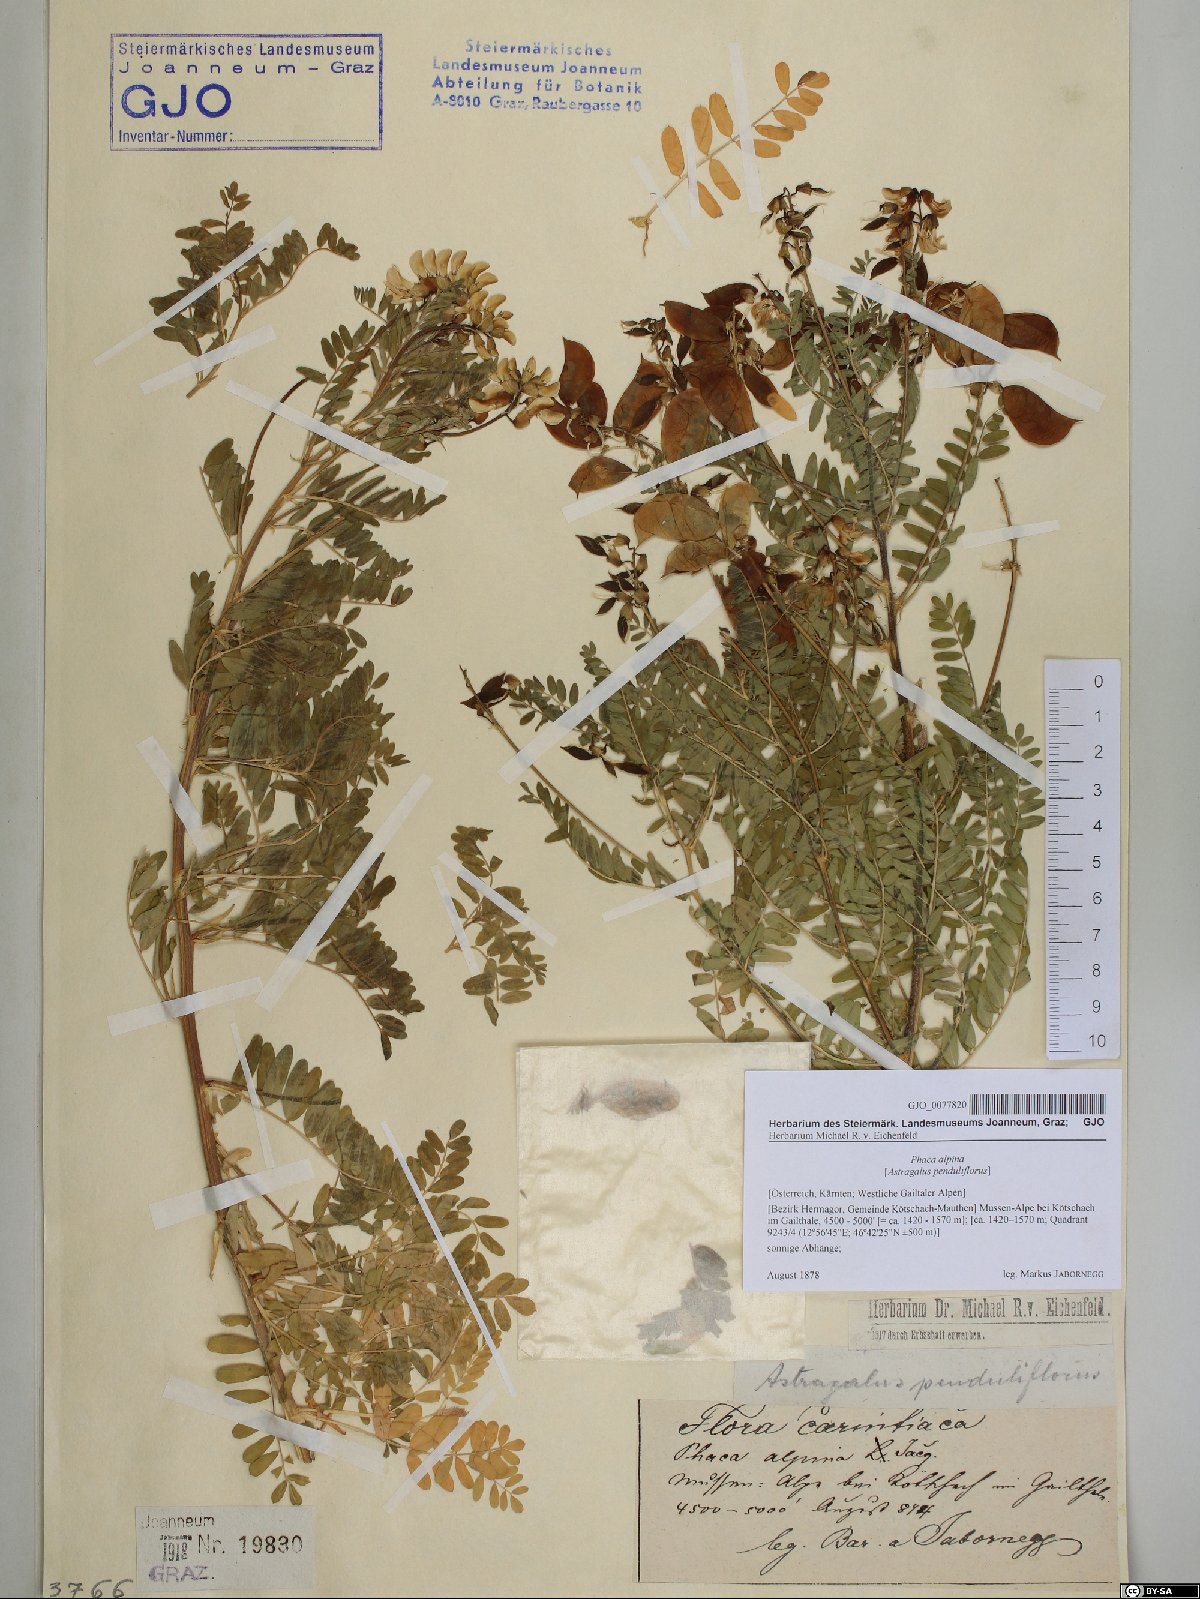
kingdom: Plantae
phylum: Tracheophyta
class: Magnoliopsida
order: Fabales
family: Fabaceae
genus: Astragalus
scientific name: Astragalus penduliflorus
